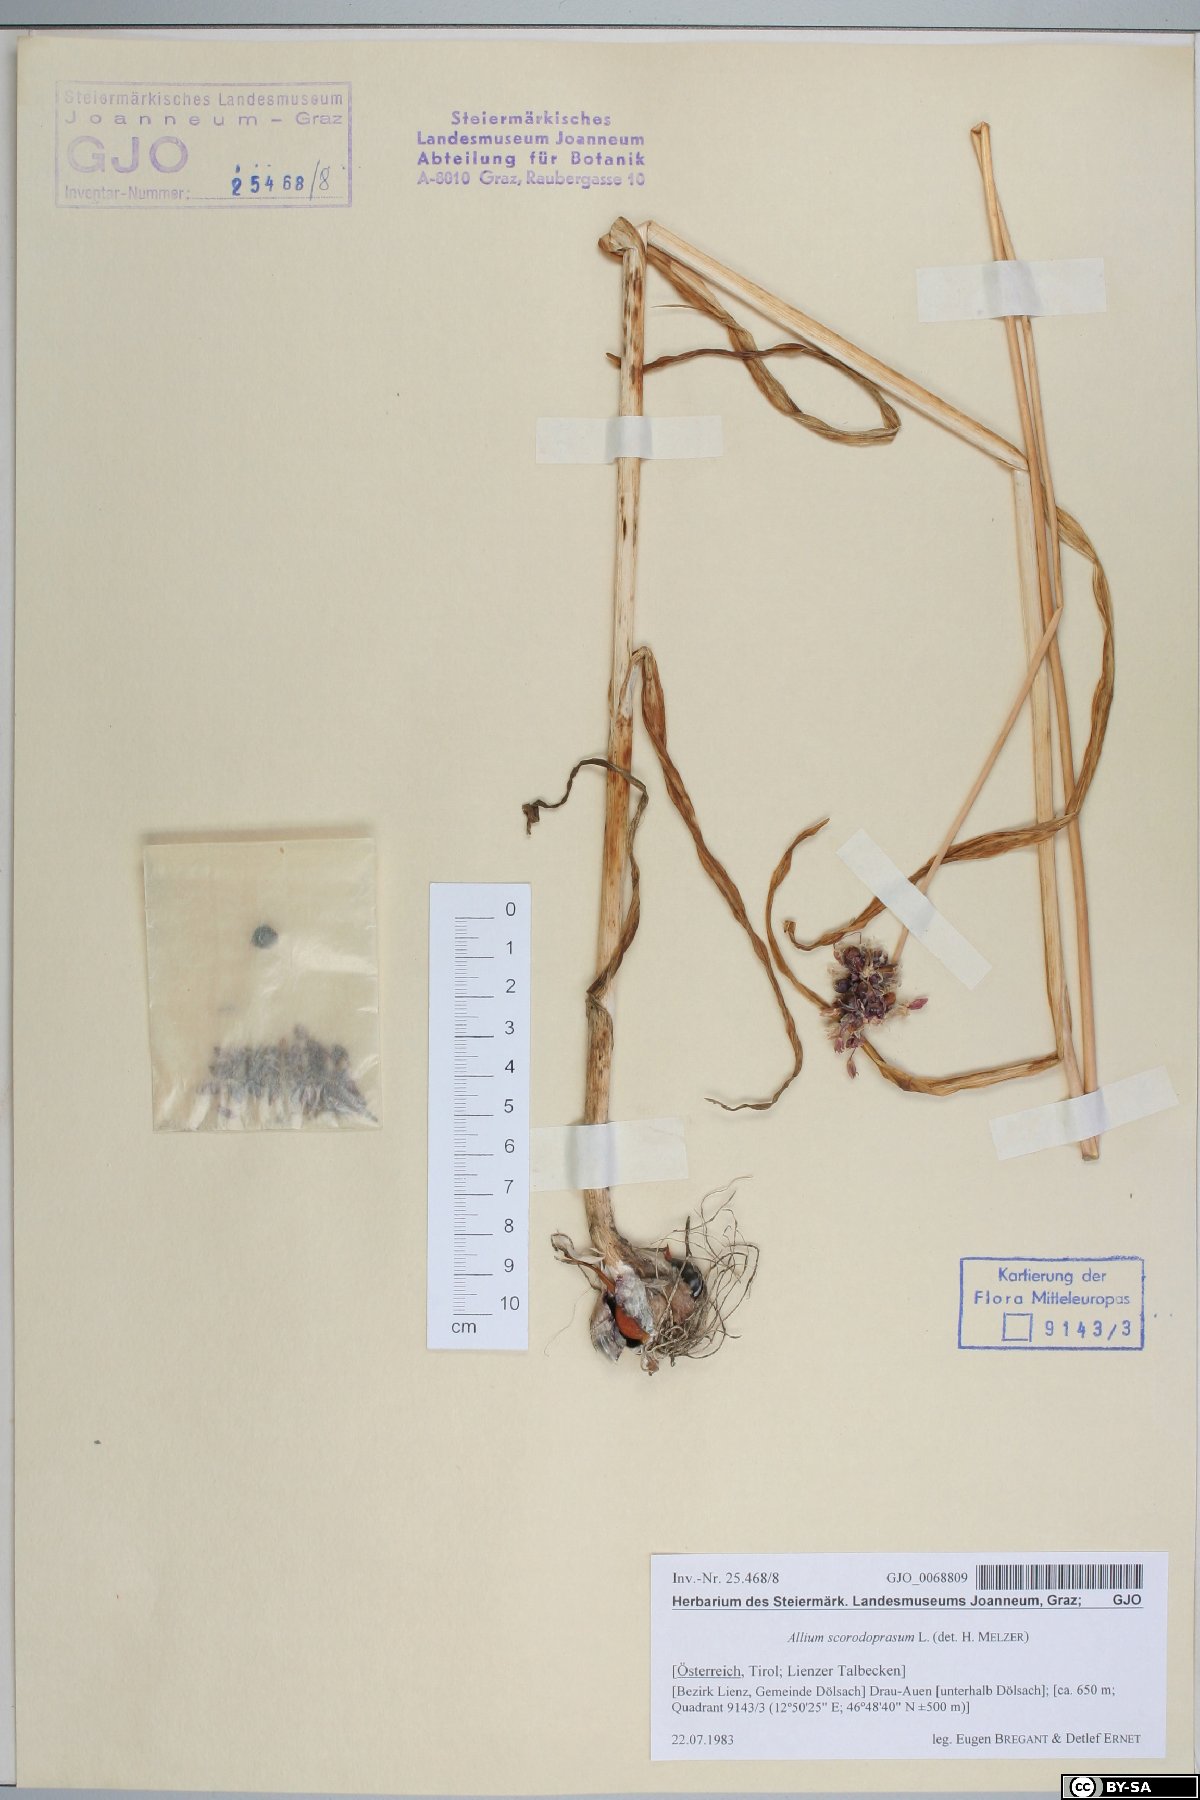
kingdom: Plantae
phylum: Tracheophyta
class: Liliopsida
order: Asparagales
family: Amaryllidaceae
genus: Allium
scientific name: Allium scorodoprasum
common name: Sand leek
